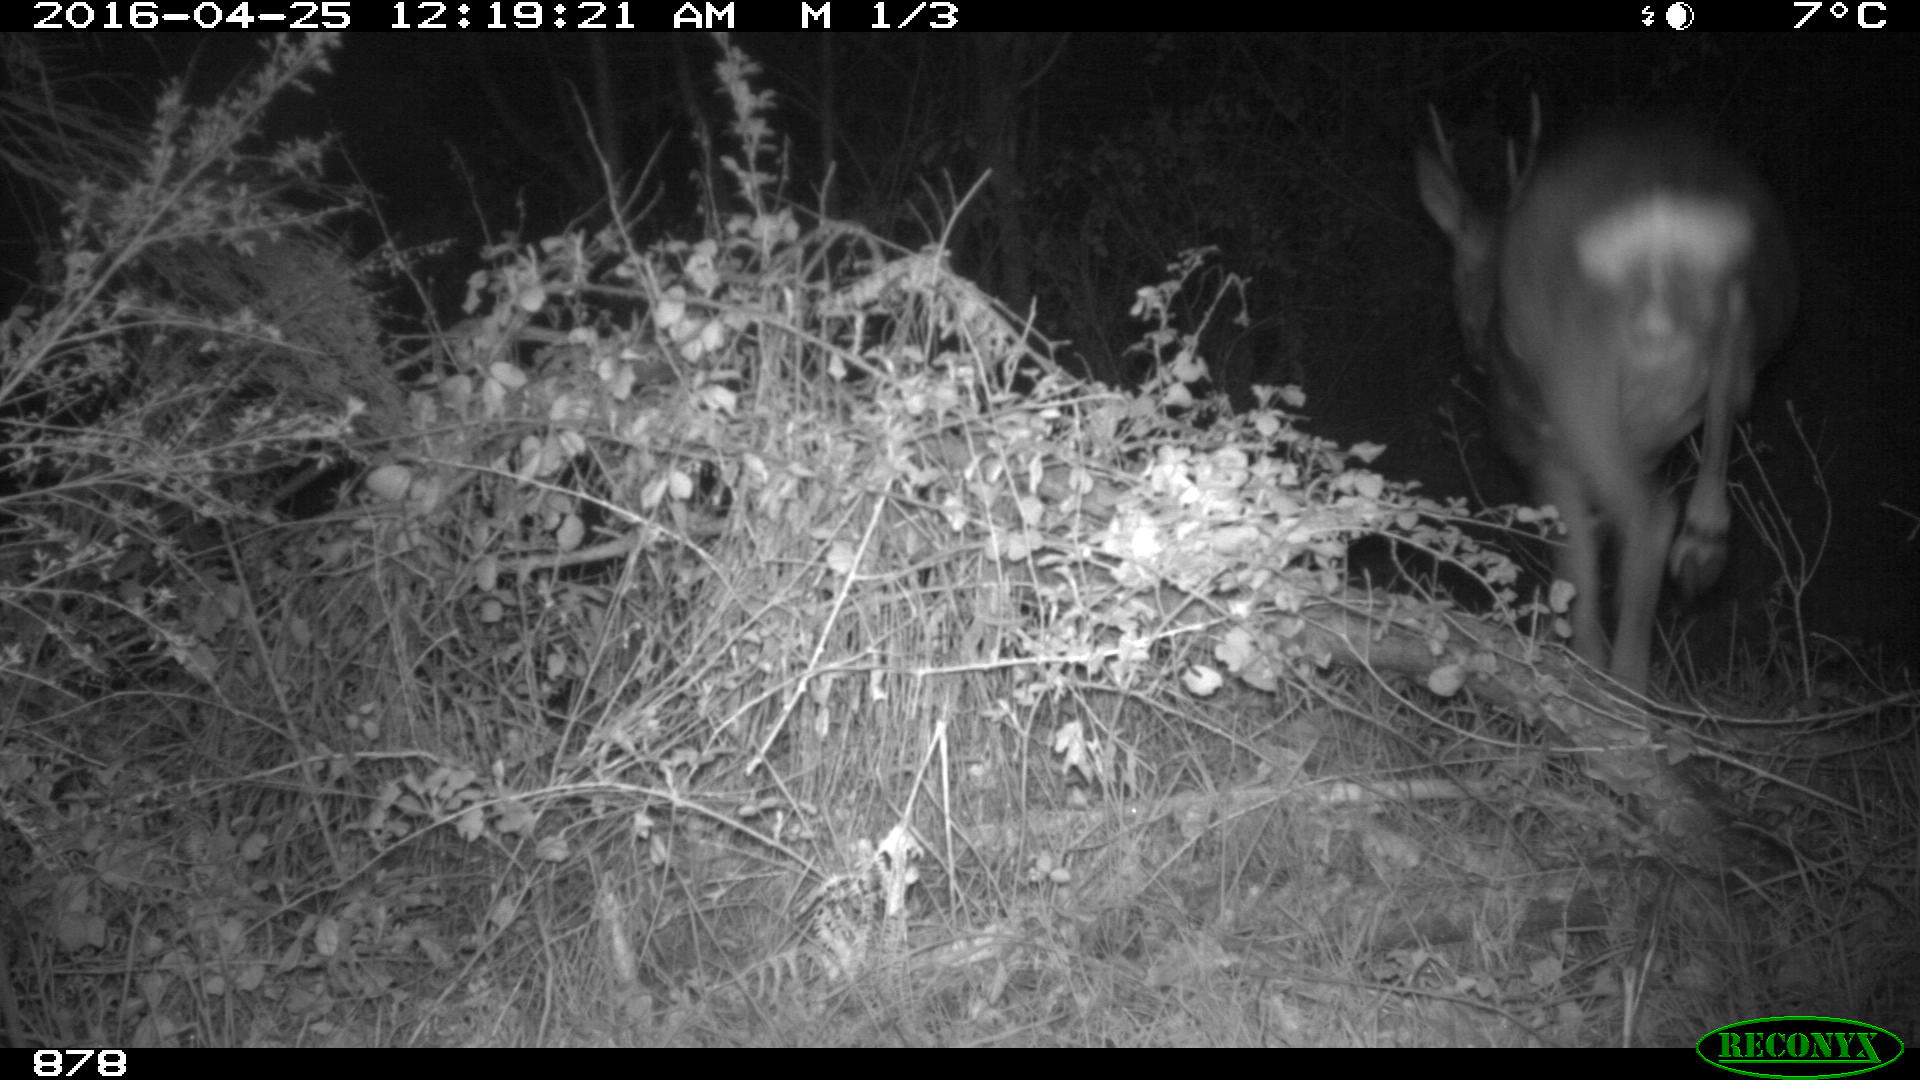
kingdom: Animalia
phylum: Chordata
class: Mammalia
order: Artiodactyla
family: Cervidae
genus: Capreolus
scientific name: Capreolus capreolus
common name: Western roe deer
